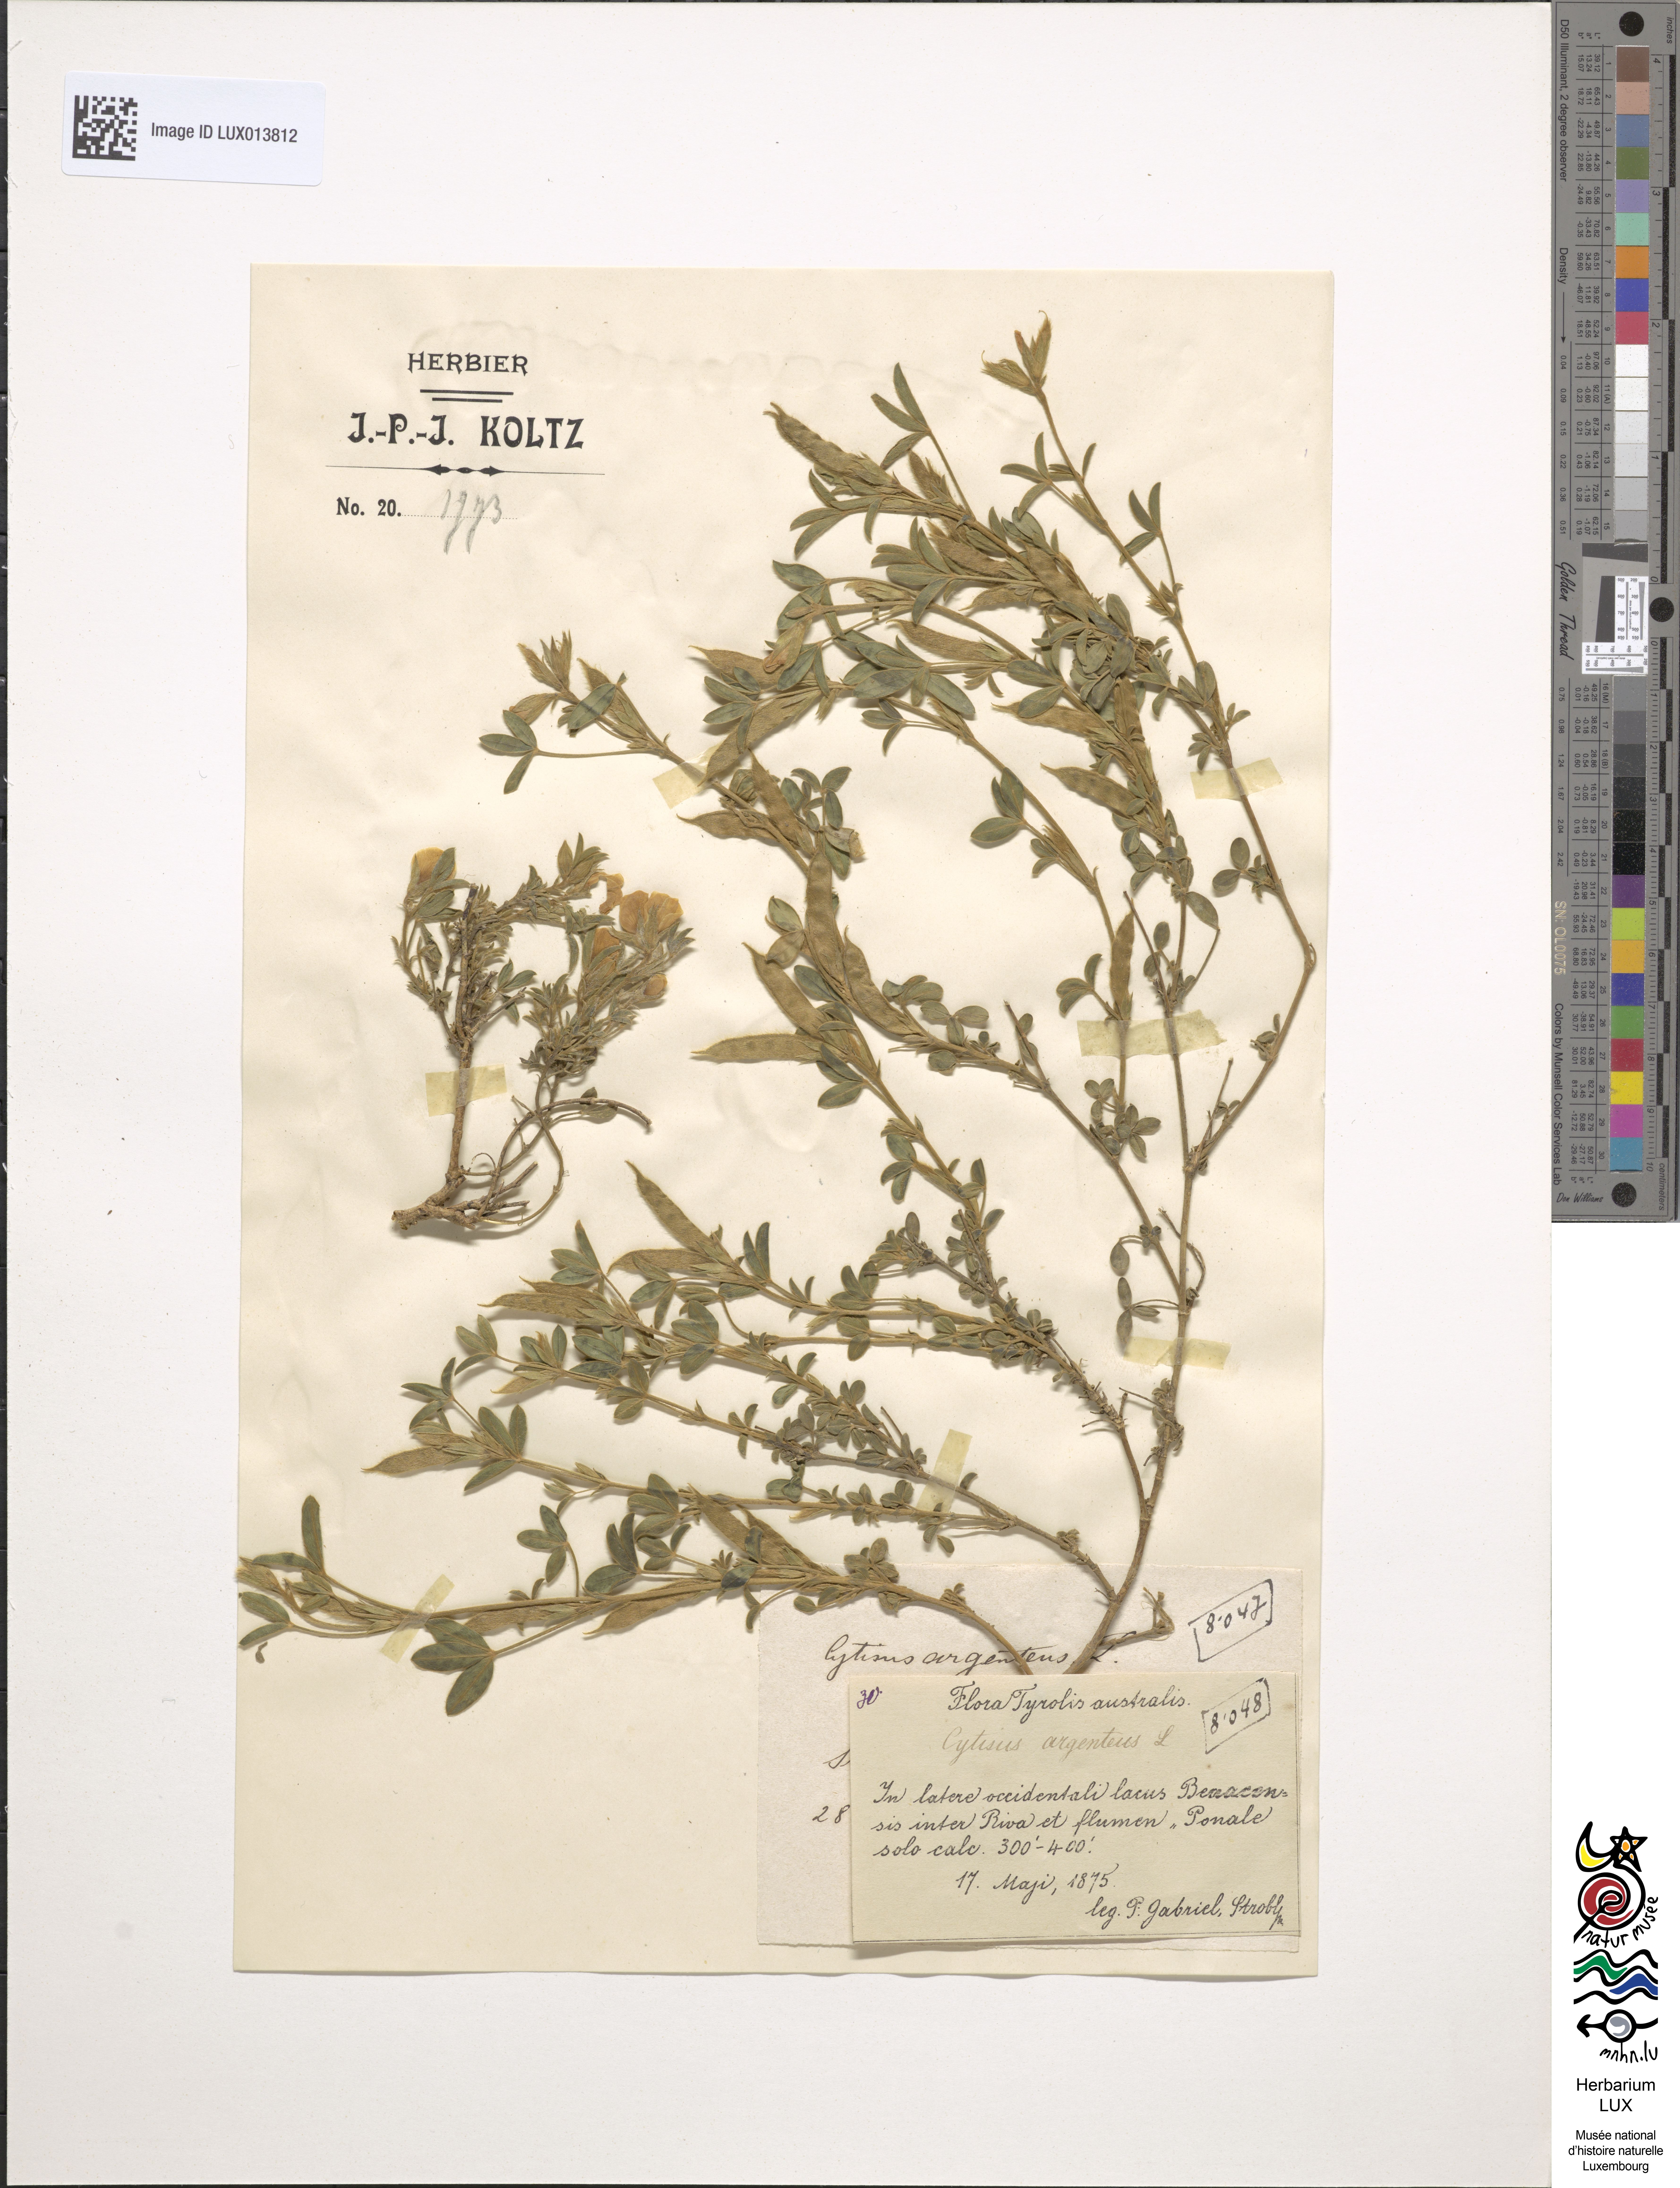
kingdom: Plantae
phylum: Tracheophyta
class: Magnoliopsida
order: Fabales
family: Fabaceae
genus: Argyrolobium
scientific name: Argyrolobium zanonii
